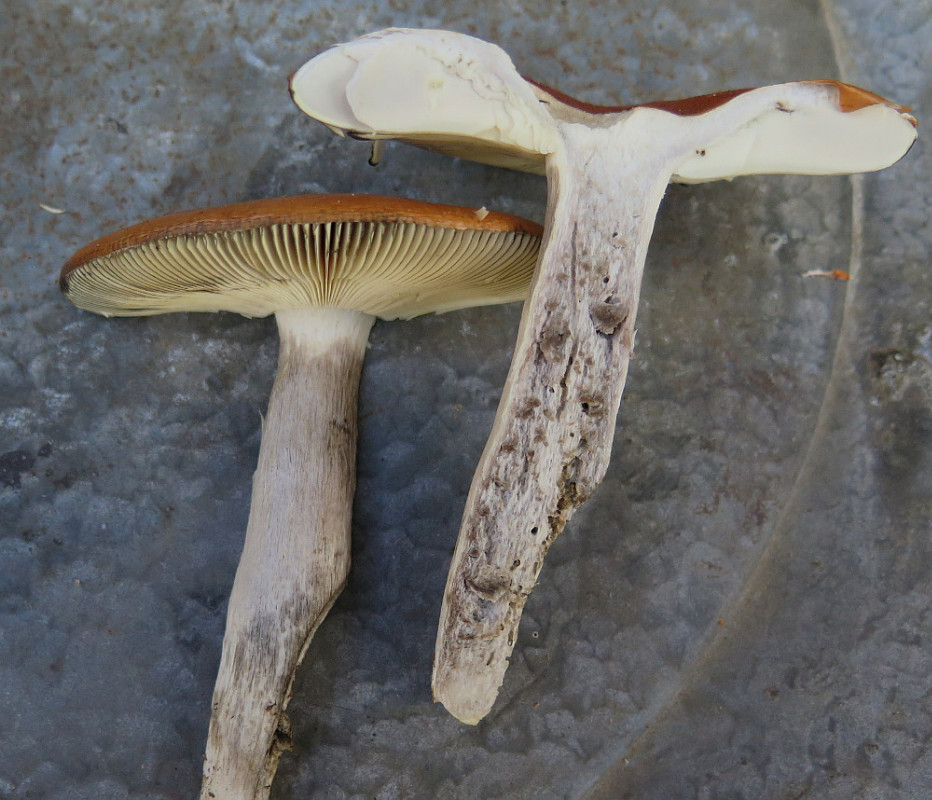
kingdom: Fungi
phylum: Basidiomycota
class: Agaricomycetes
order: Russulales
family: Russulaceae
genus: Russula
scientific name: Russula decolorans
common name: afblegende skørhat
